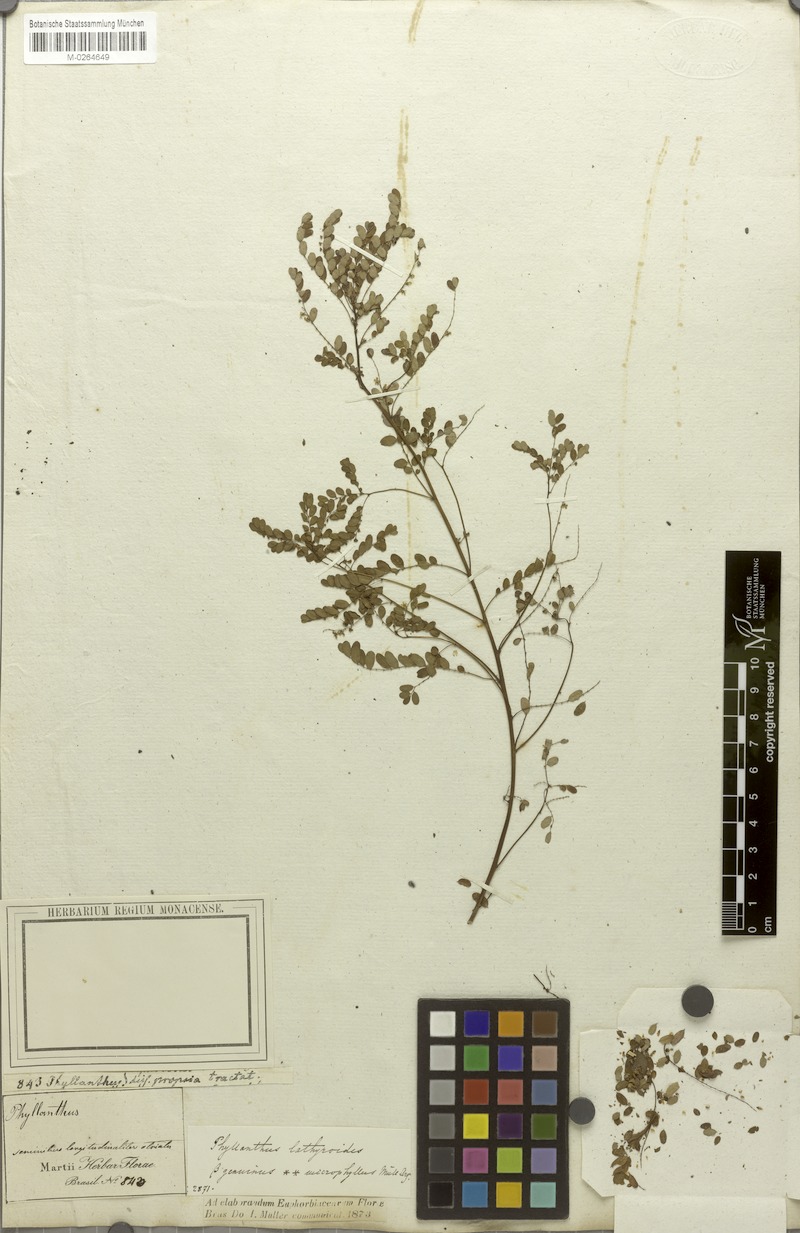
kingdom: Plantae
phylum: Tracheophyta
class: Magnoliopsida
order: Malpighiales
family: Phyllanthaceae
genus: Phyllanthus
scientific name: Phyllanthus niruri
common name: Niruri
